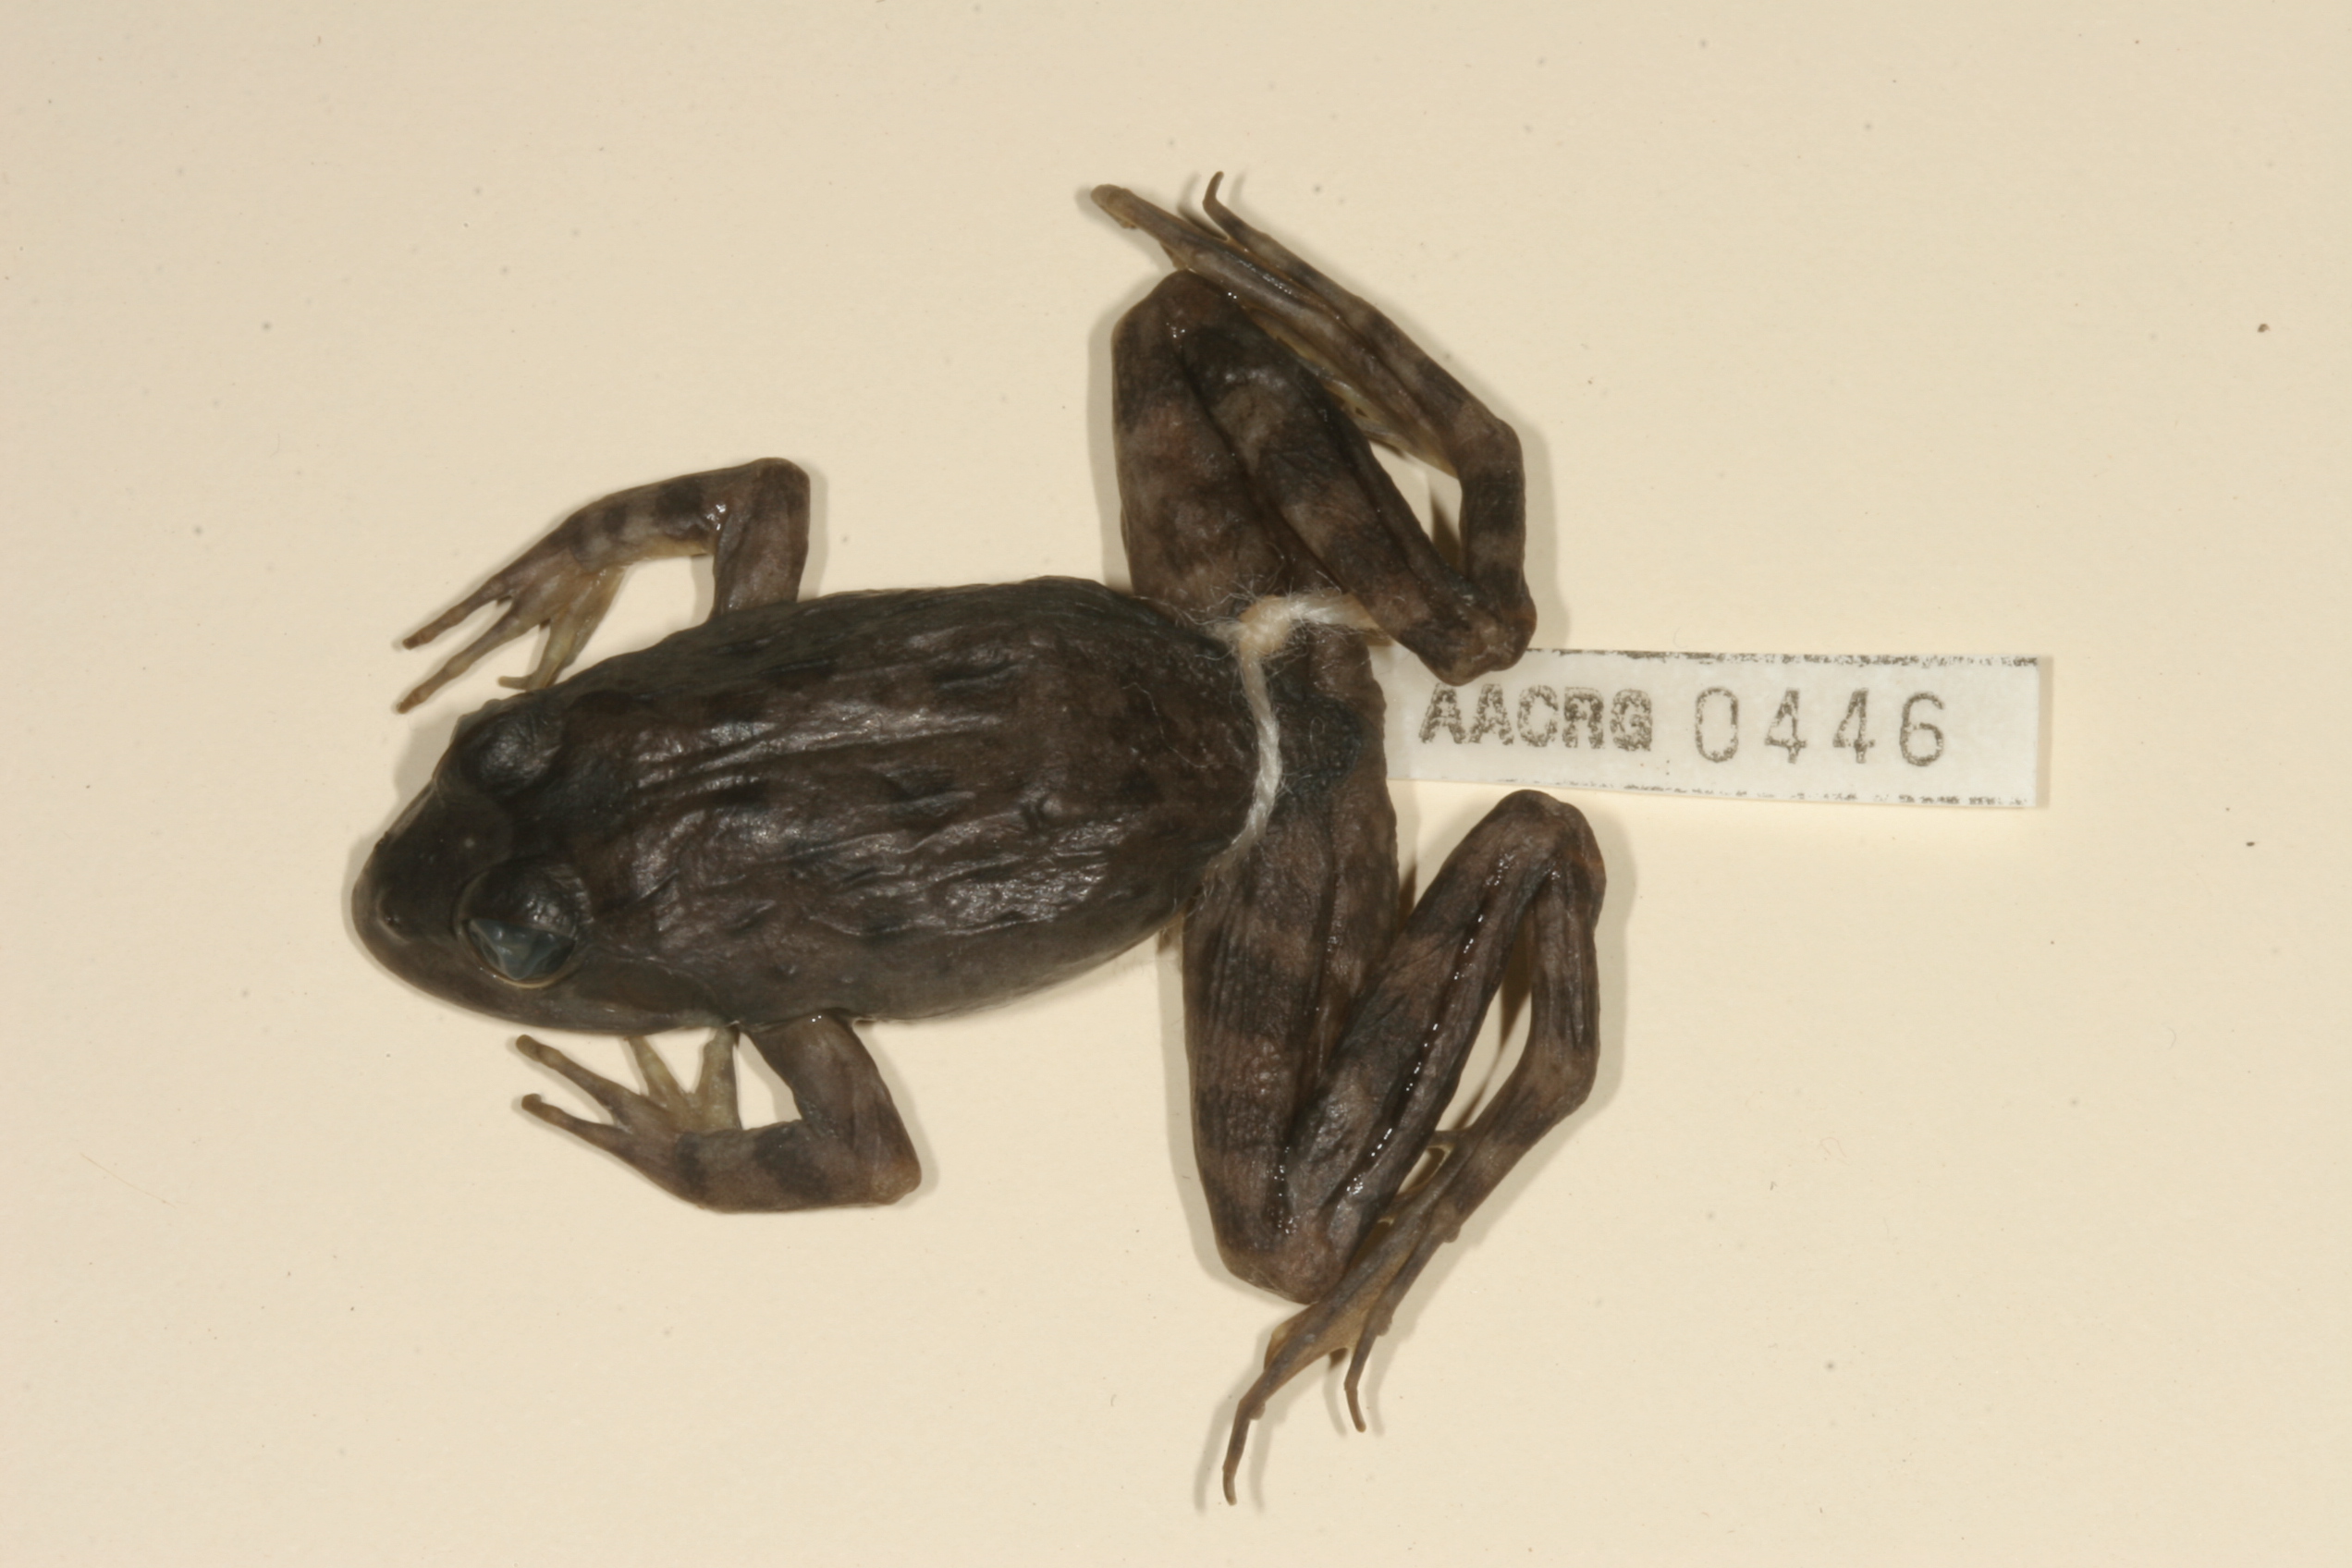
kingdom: Animalia
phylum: Chordata
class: Amphibia
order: Anura
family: Pyxicephalidae
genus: Strongylopus
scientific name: Strongylopus grayii
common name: Gray's stream frog
